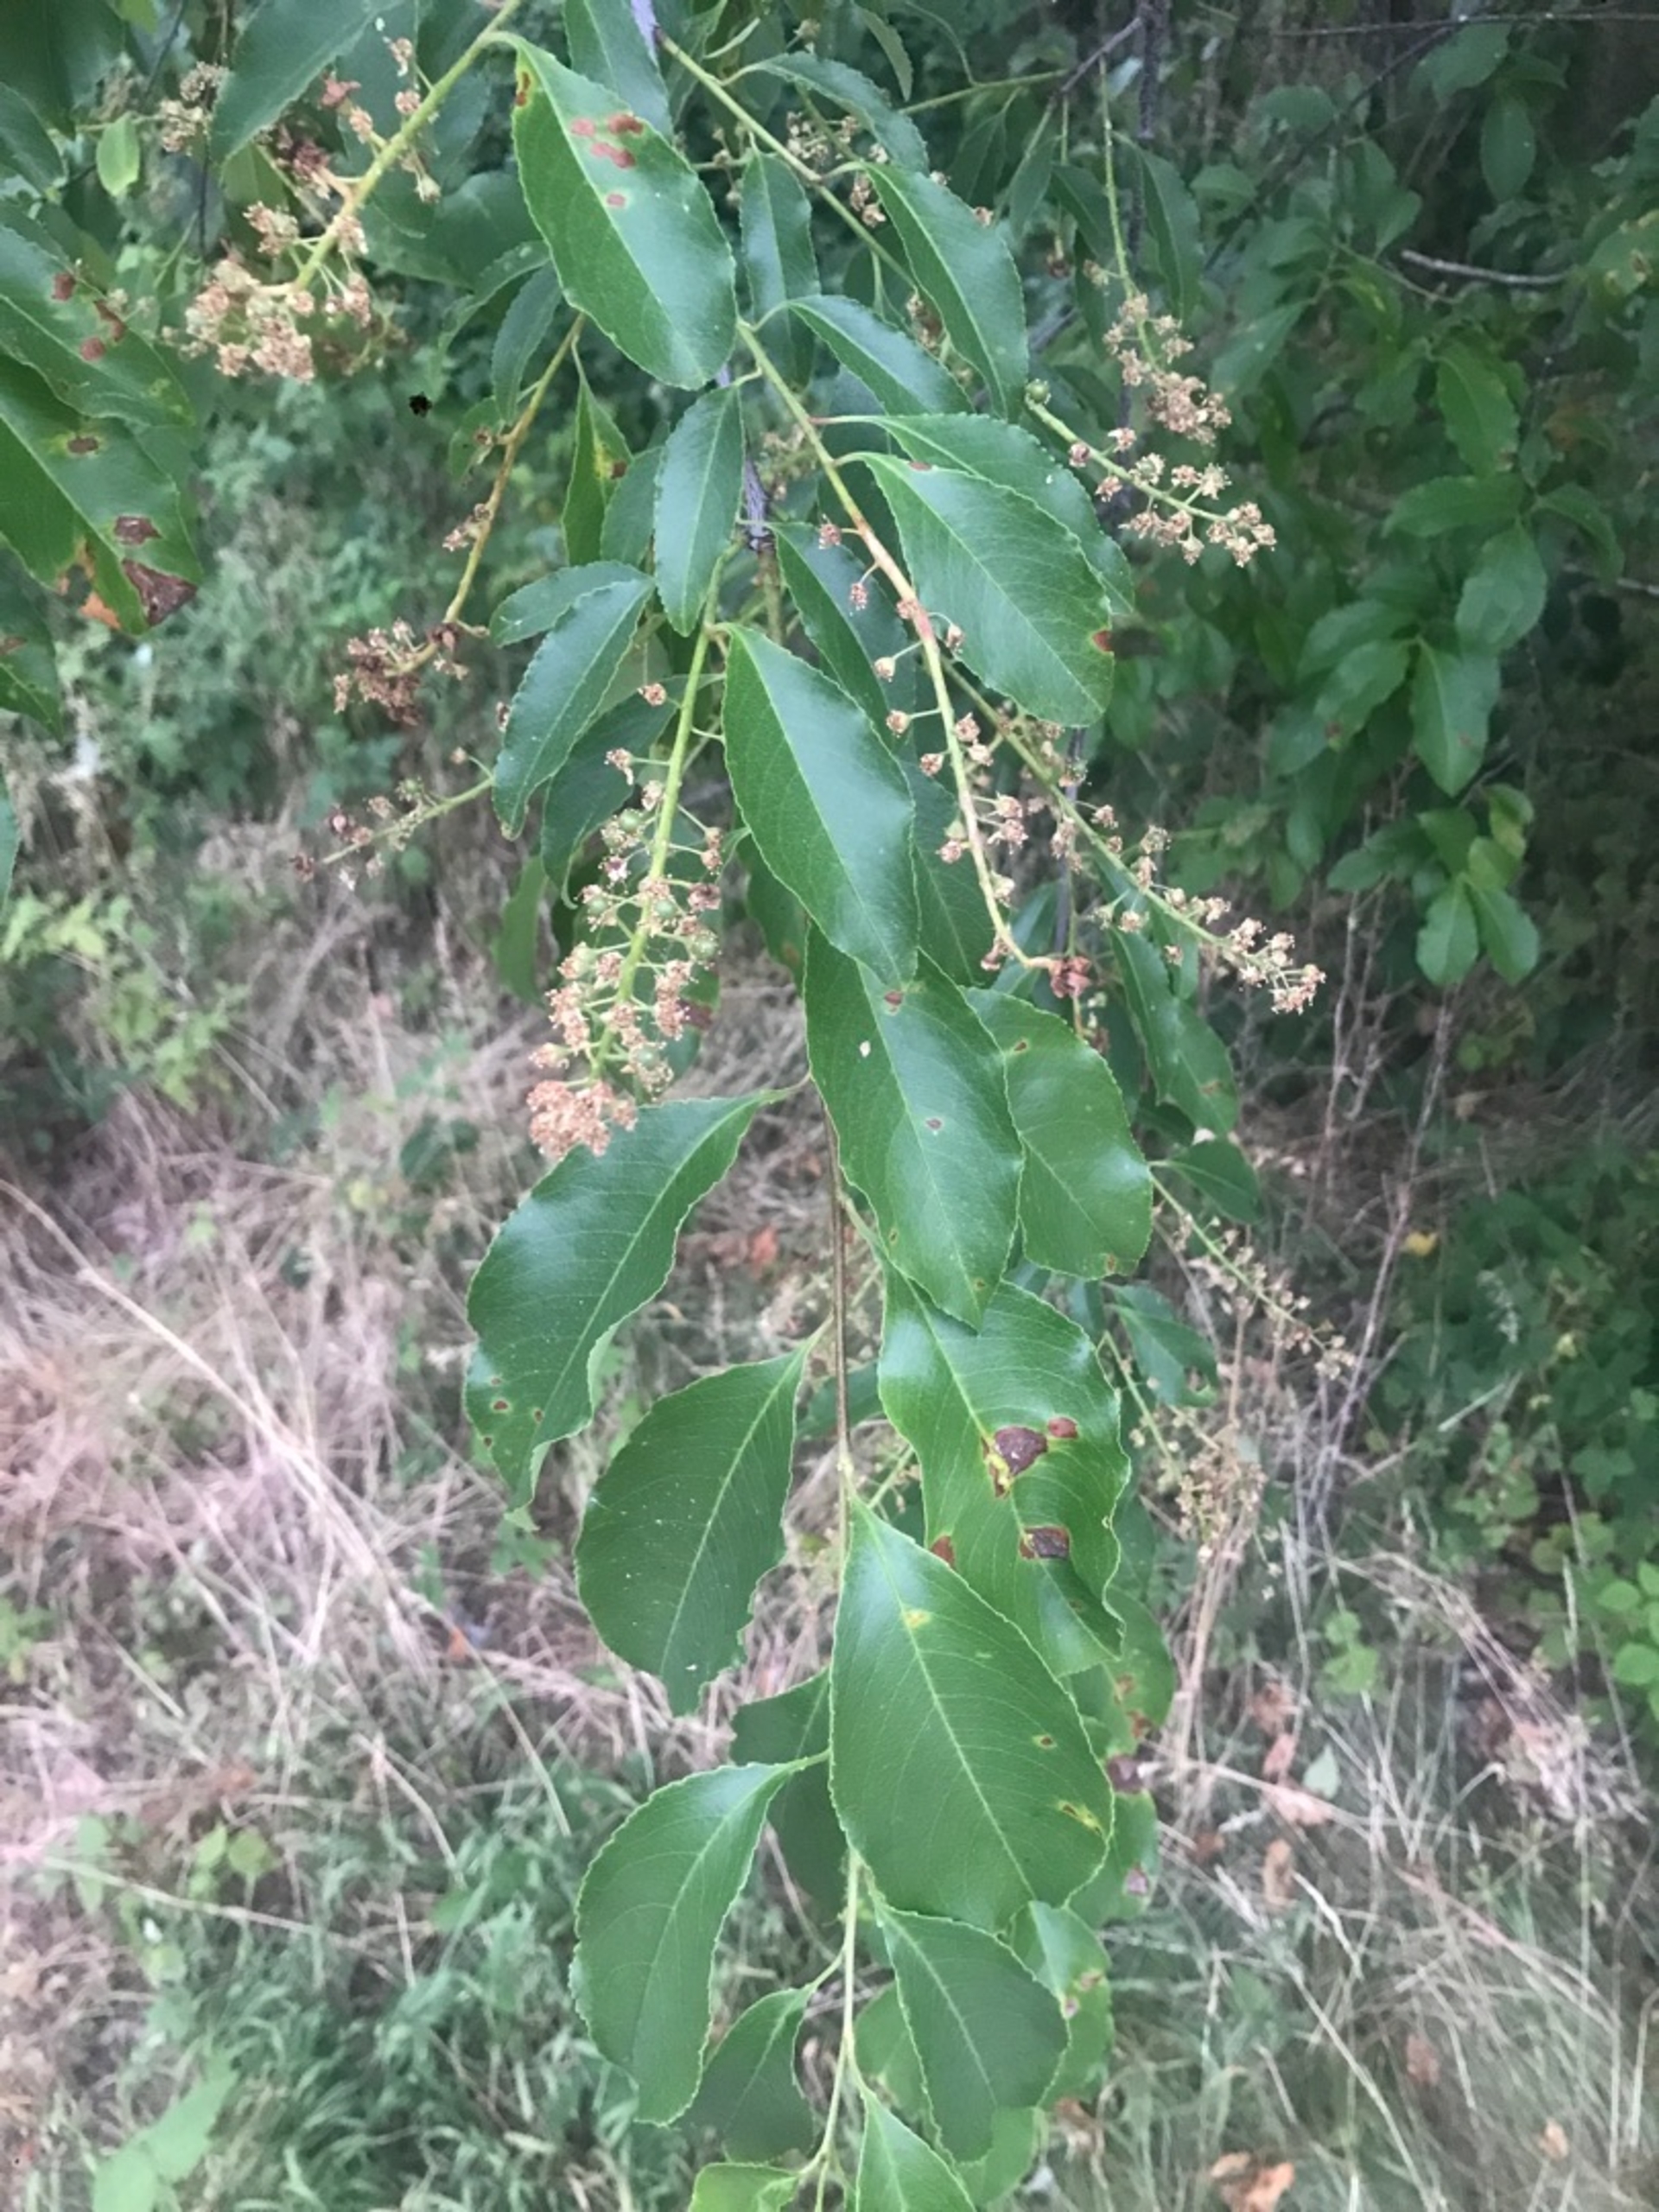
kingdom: Plantae
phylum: Tracheophyta
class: Magnoliopsida
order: Rosales
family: Rosaceae
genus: Prunus
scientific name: Prunus serotina
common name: Glansbladet hæg
